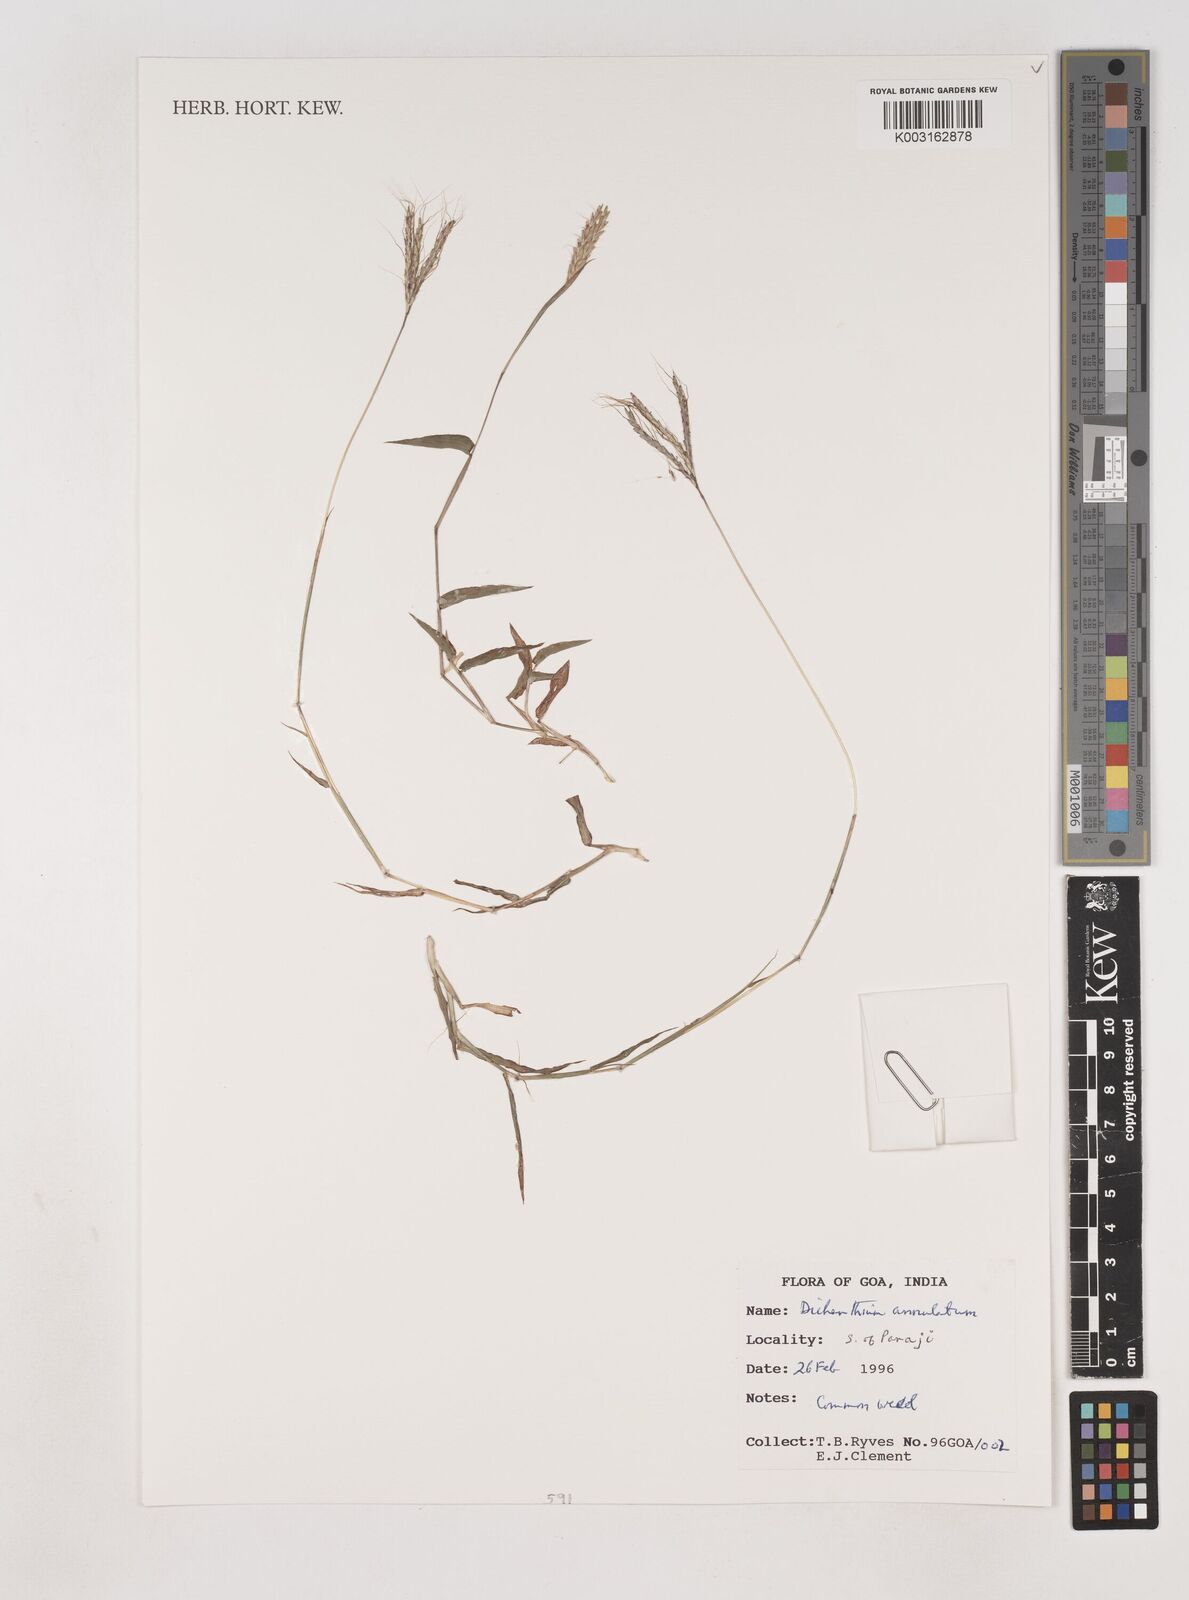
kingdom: Plantae
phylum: Tracheophyta
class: Liliopsida
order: Poales
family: Poaceae
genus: Dichanthium
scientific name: Dichanthium annulatum
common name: Kleberg's bluestem
